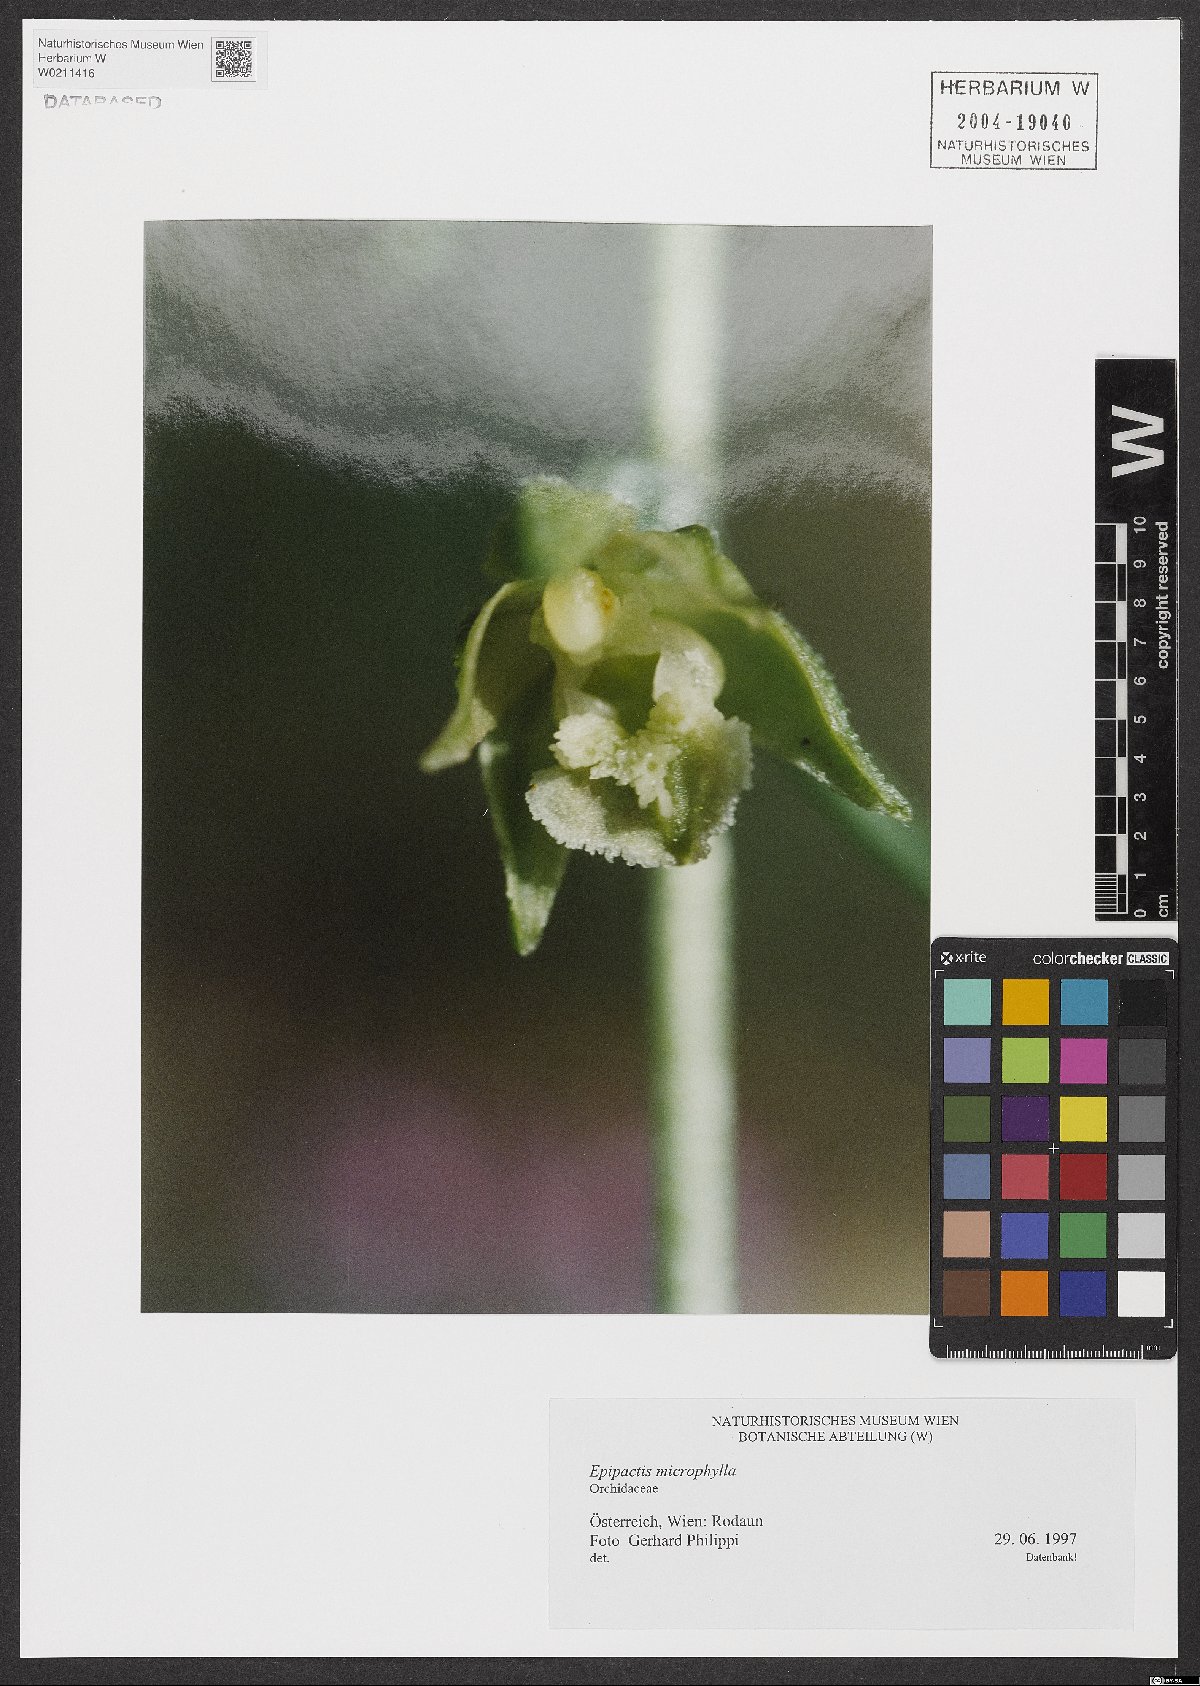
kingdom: Plantae
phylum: Tracheophyta
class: Liliopsida
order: Asparagales
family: Orchidaceae
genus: Epipactis
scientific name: Epipactis microphylla
